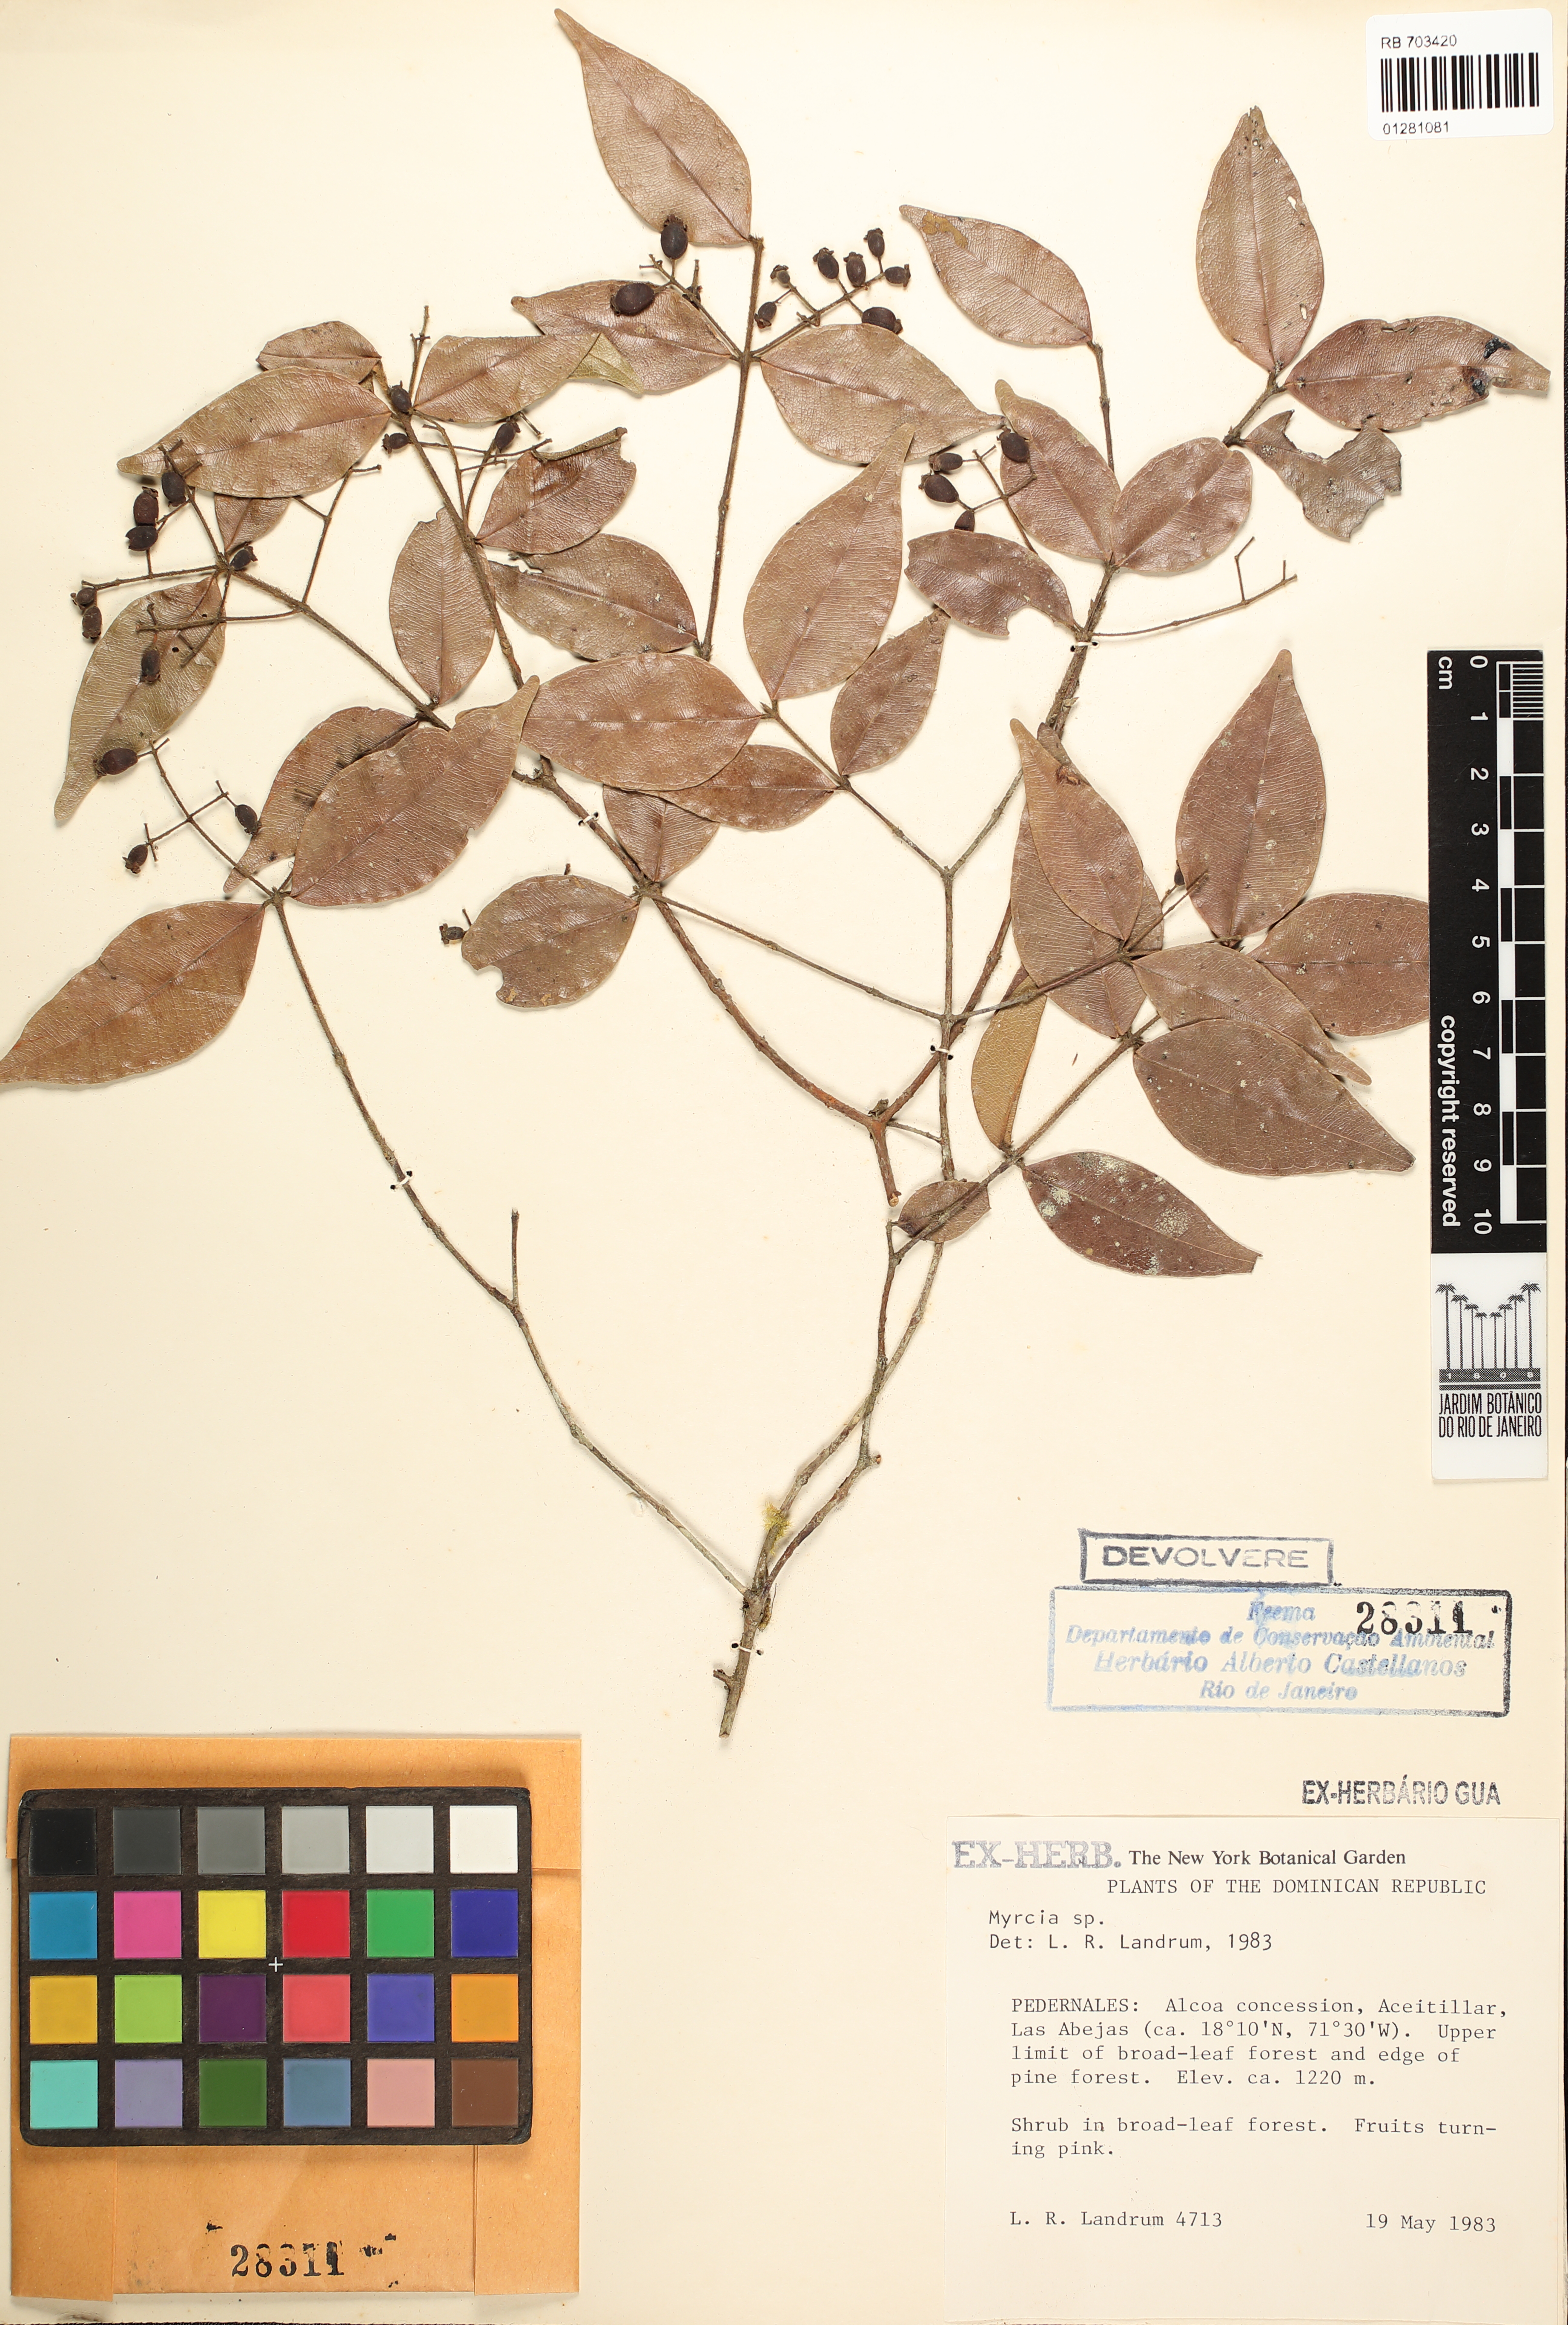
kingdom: Plantae
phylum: Tracheophyta
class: Magnoliopsida
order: Myrtales
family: Myrtaceae
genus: Myrcia
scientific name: Myrcia
